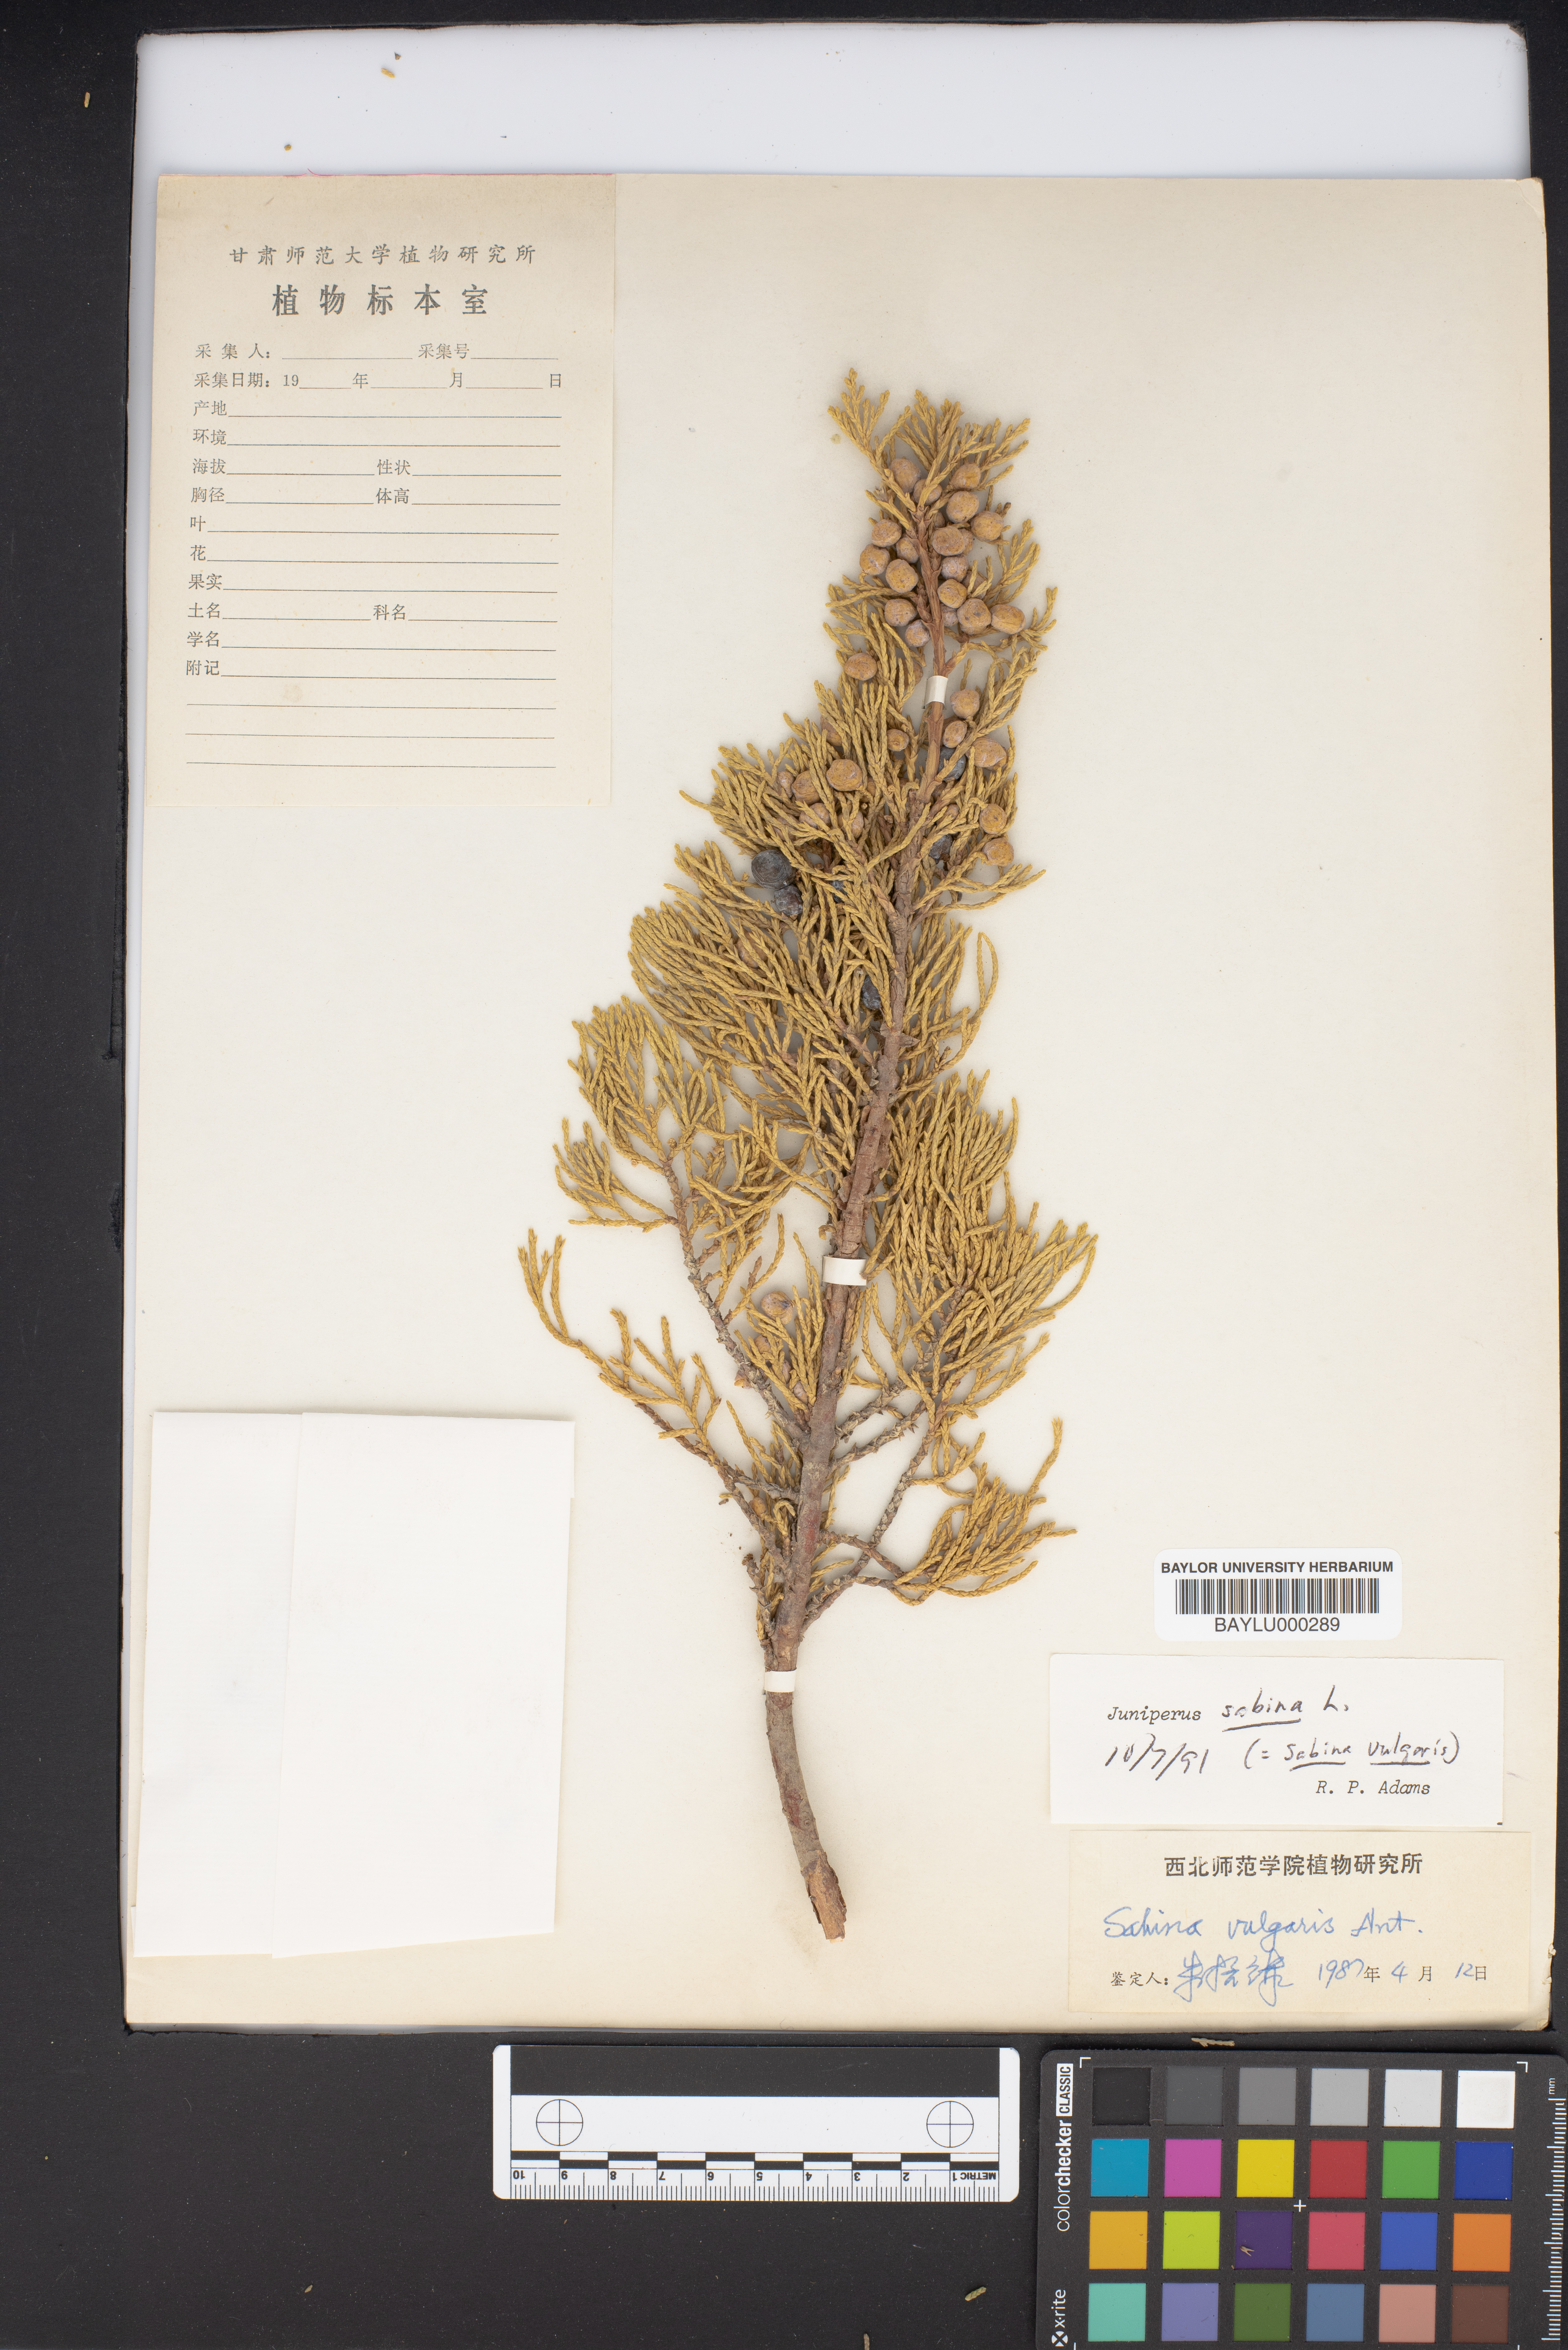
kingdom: Plantae
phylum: Tracheophyta
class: Pinopsida
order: Pinales
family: Cupressaceae
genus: Juniperus
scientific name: Juniperus sabina
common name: Savin
